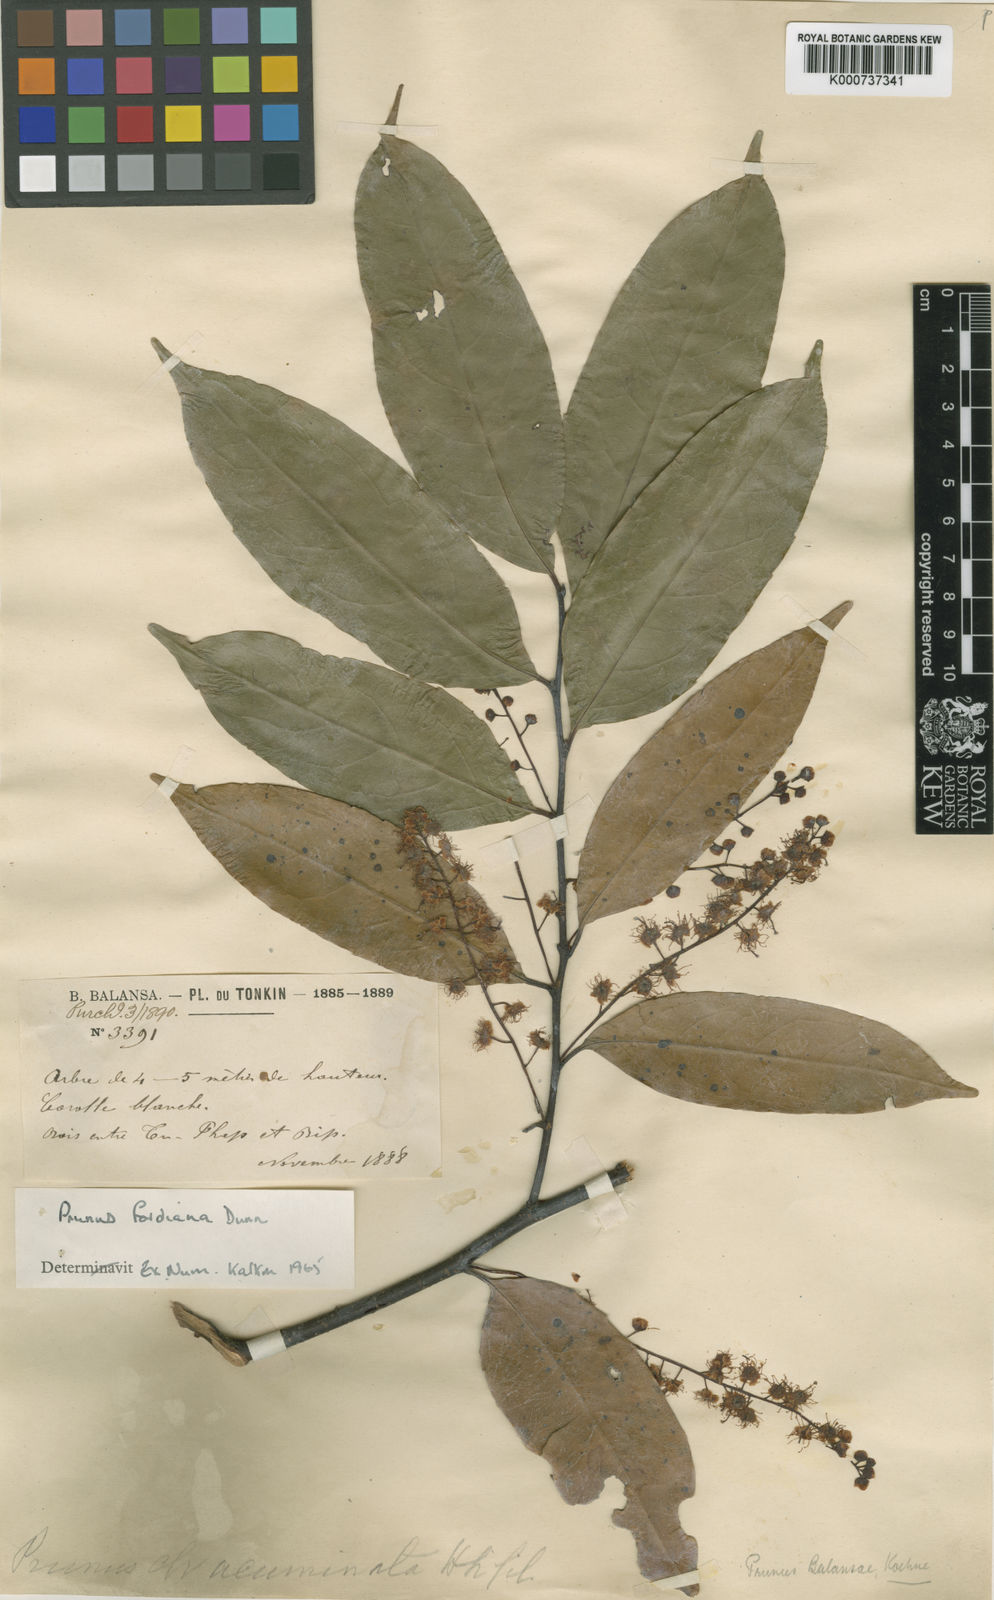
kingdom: Plantae
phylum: Tracheophyta
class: Magnoliopsida
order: Rosales
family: Rosaceae
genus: Prunus
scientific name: Prunus fordiana
